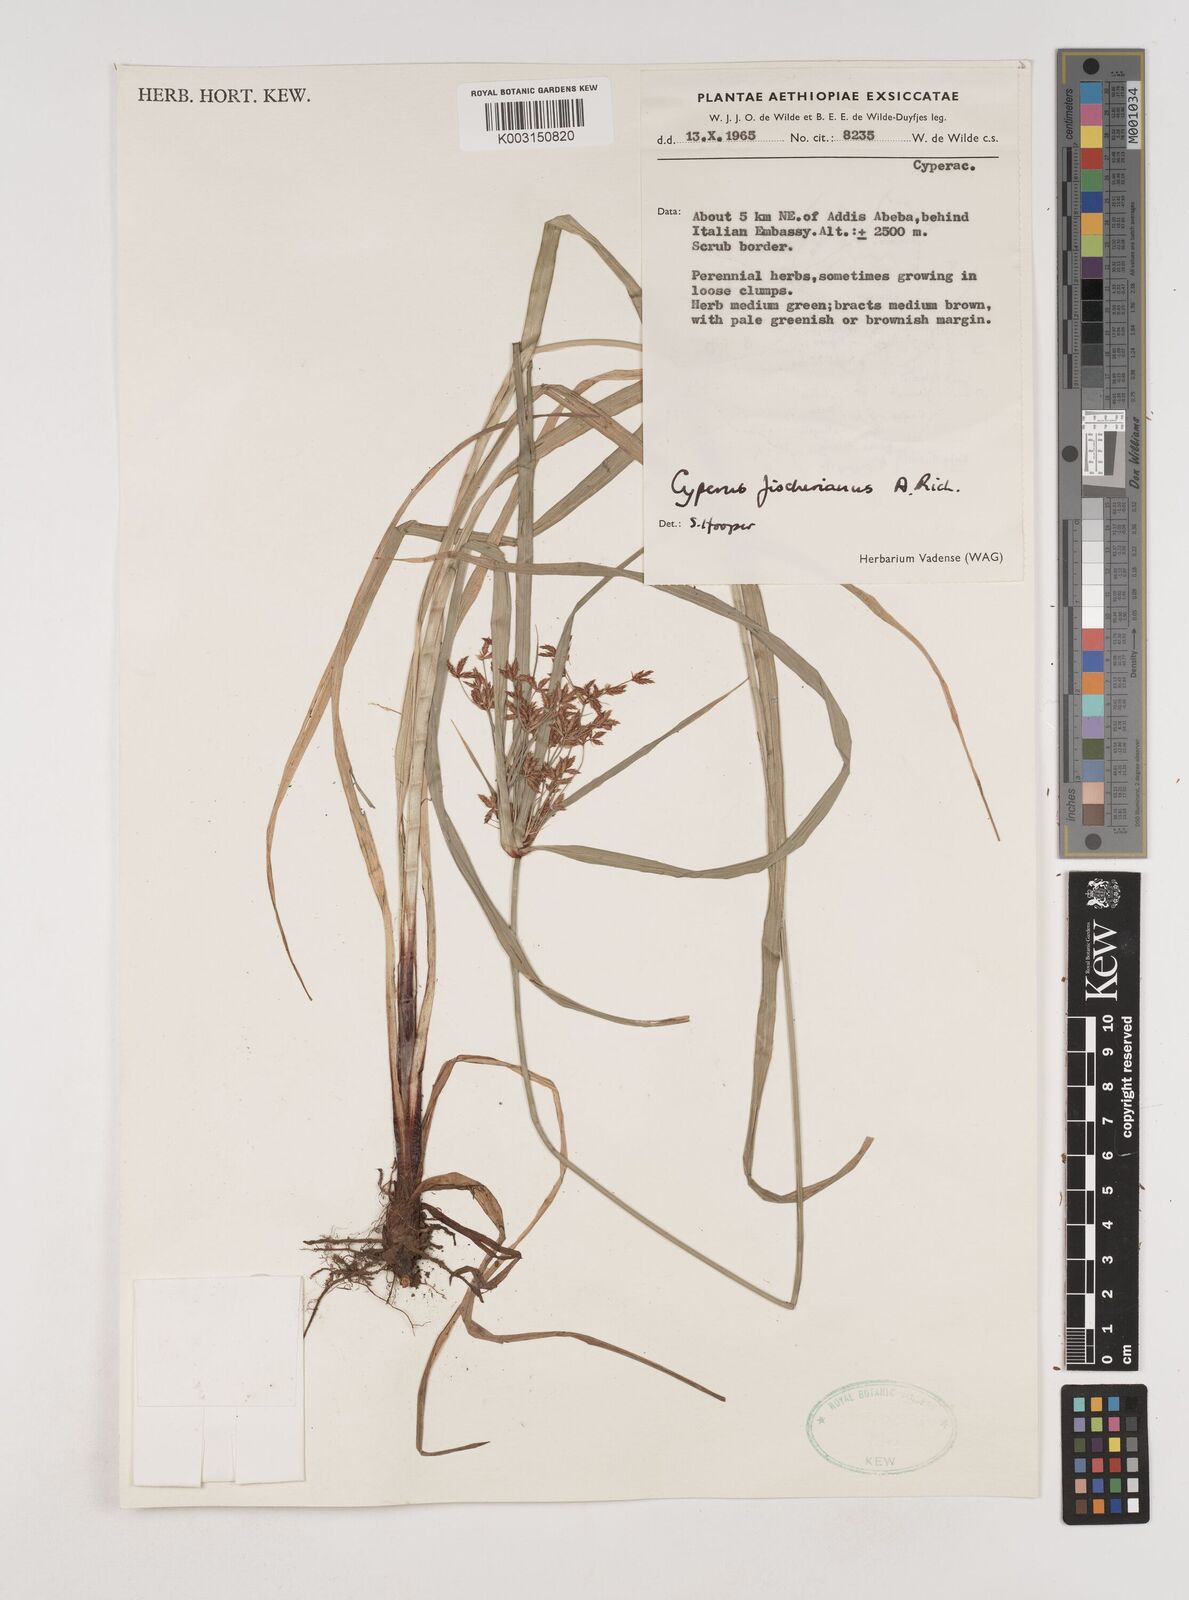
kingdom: Plantae
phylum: Tracheophyta
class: Liliopsida
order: Poales
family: Cyperaceae
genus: Cyperus
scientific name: Cyperus fischerianus
